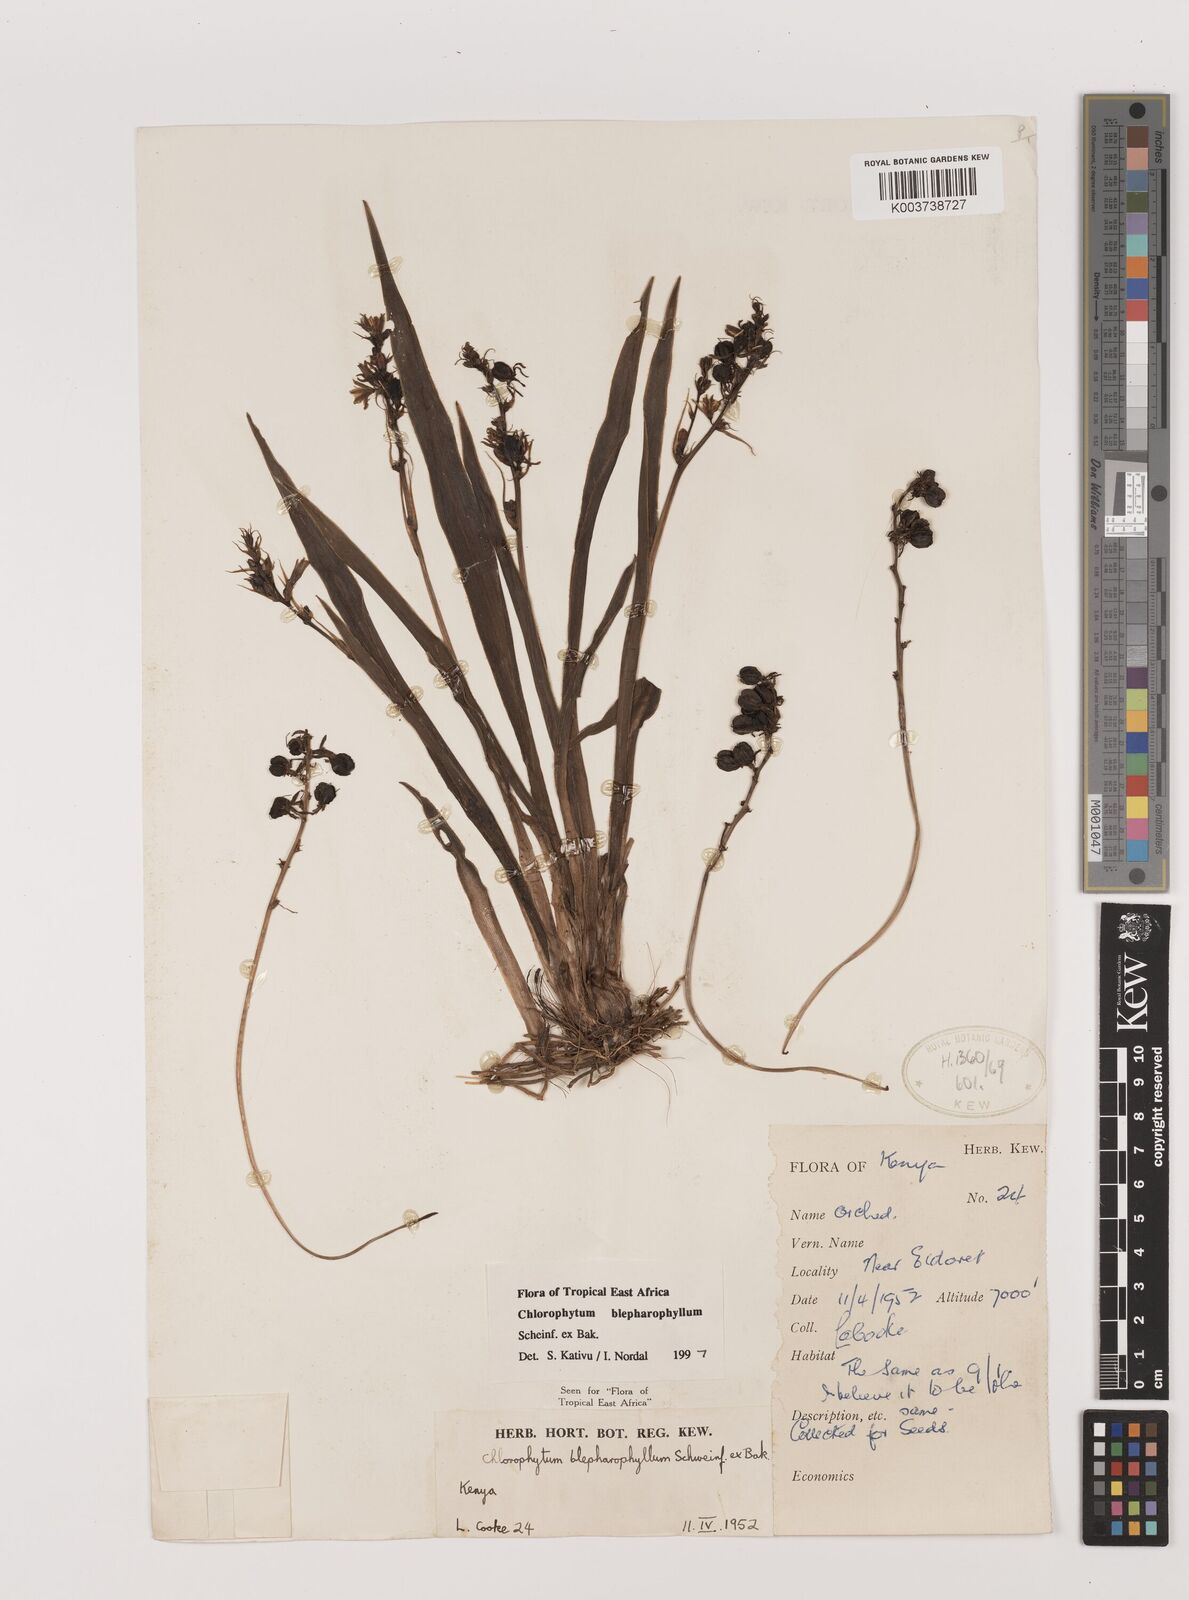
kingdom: Plantae
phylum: Tracheophyta
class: Liliopsida
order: Asparagales
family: Asparagaceae
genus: Chlorophytum
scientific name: Chlorophytum blepharophyllum
